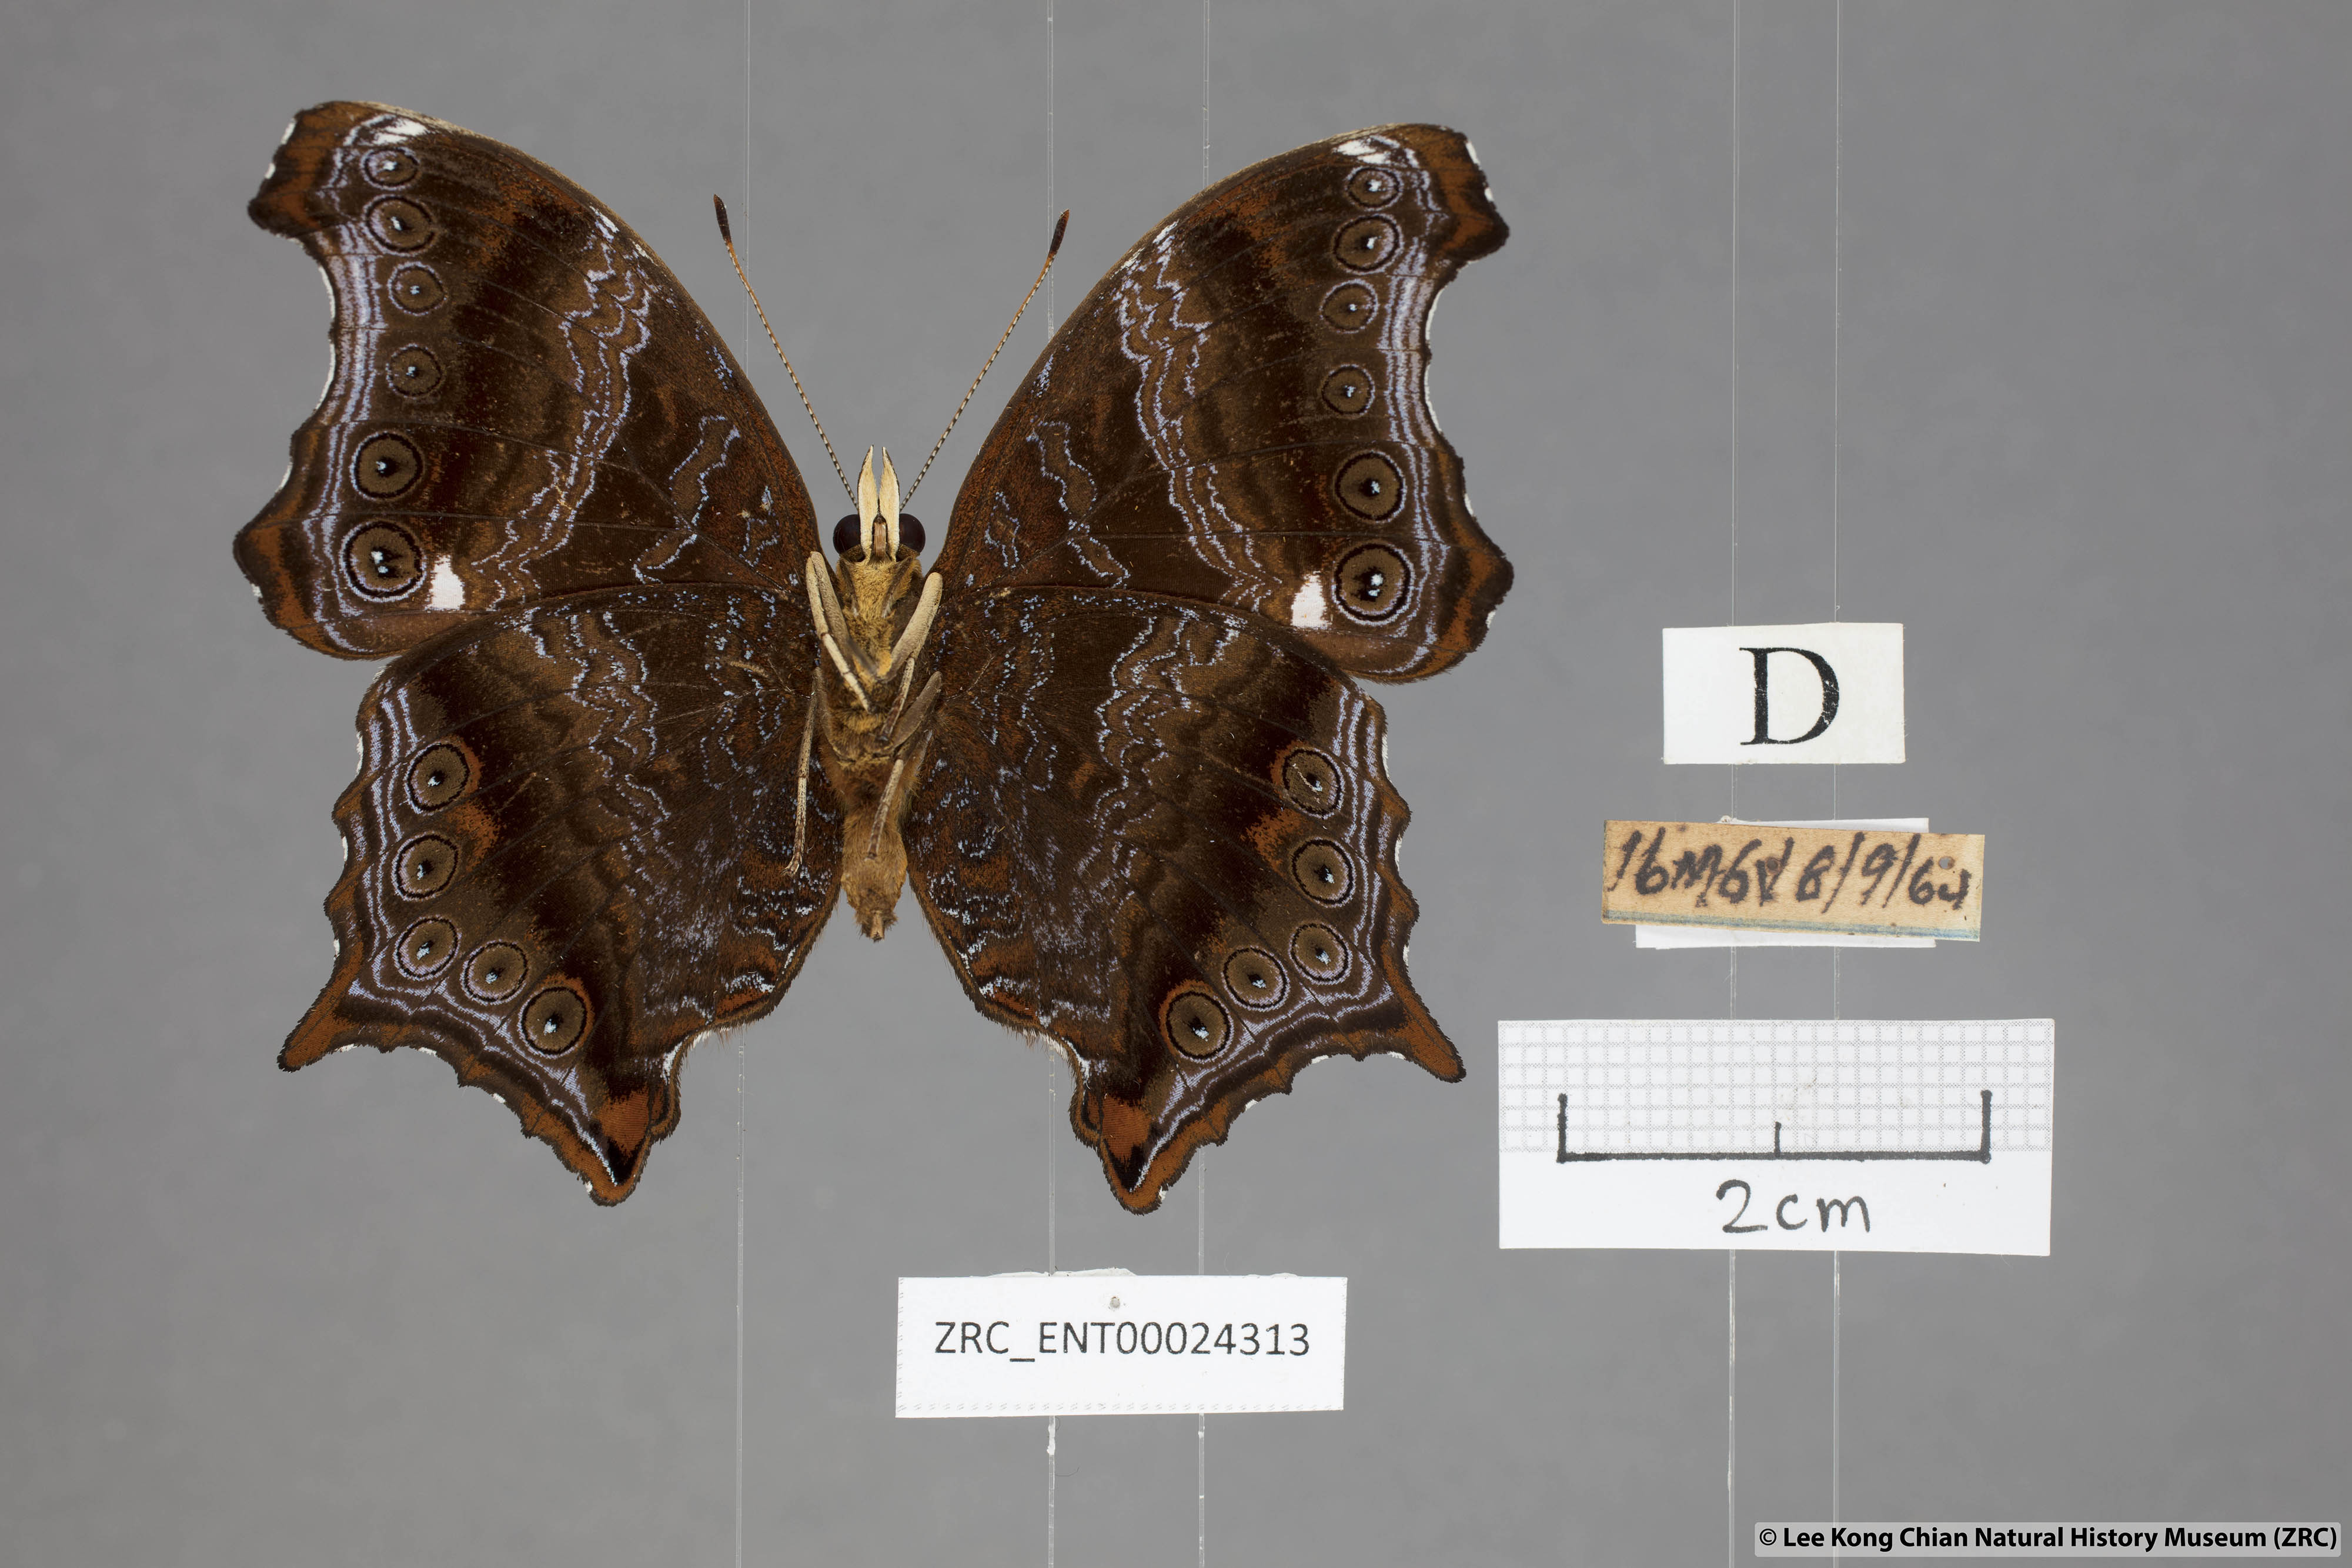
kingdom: Animalia
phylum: Arthropoda
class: Insecta
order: Lepidoptera
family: Nymphalidae
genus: Rhinopalpa
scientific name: Rhinopalpa polynice
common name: Wizard
